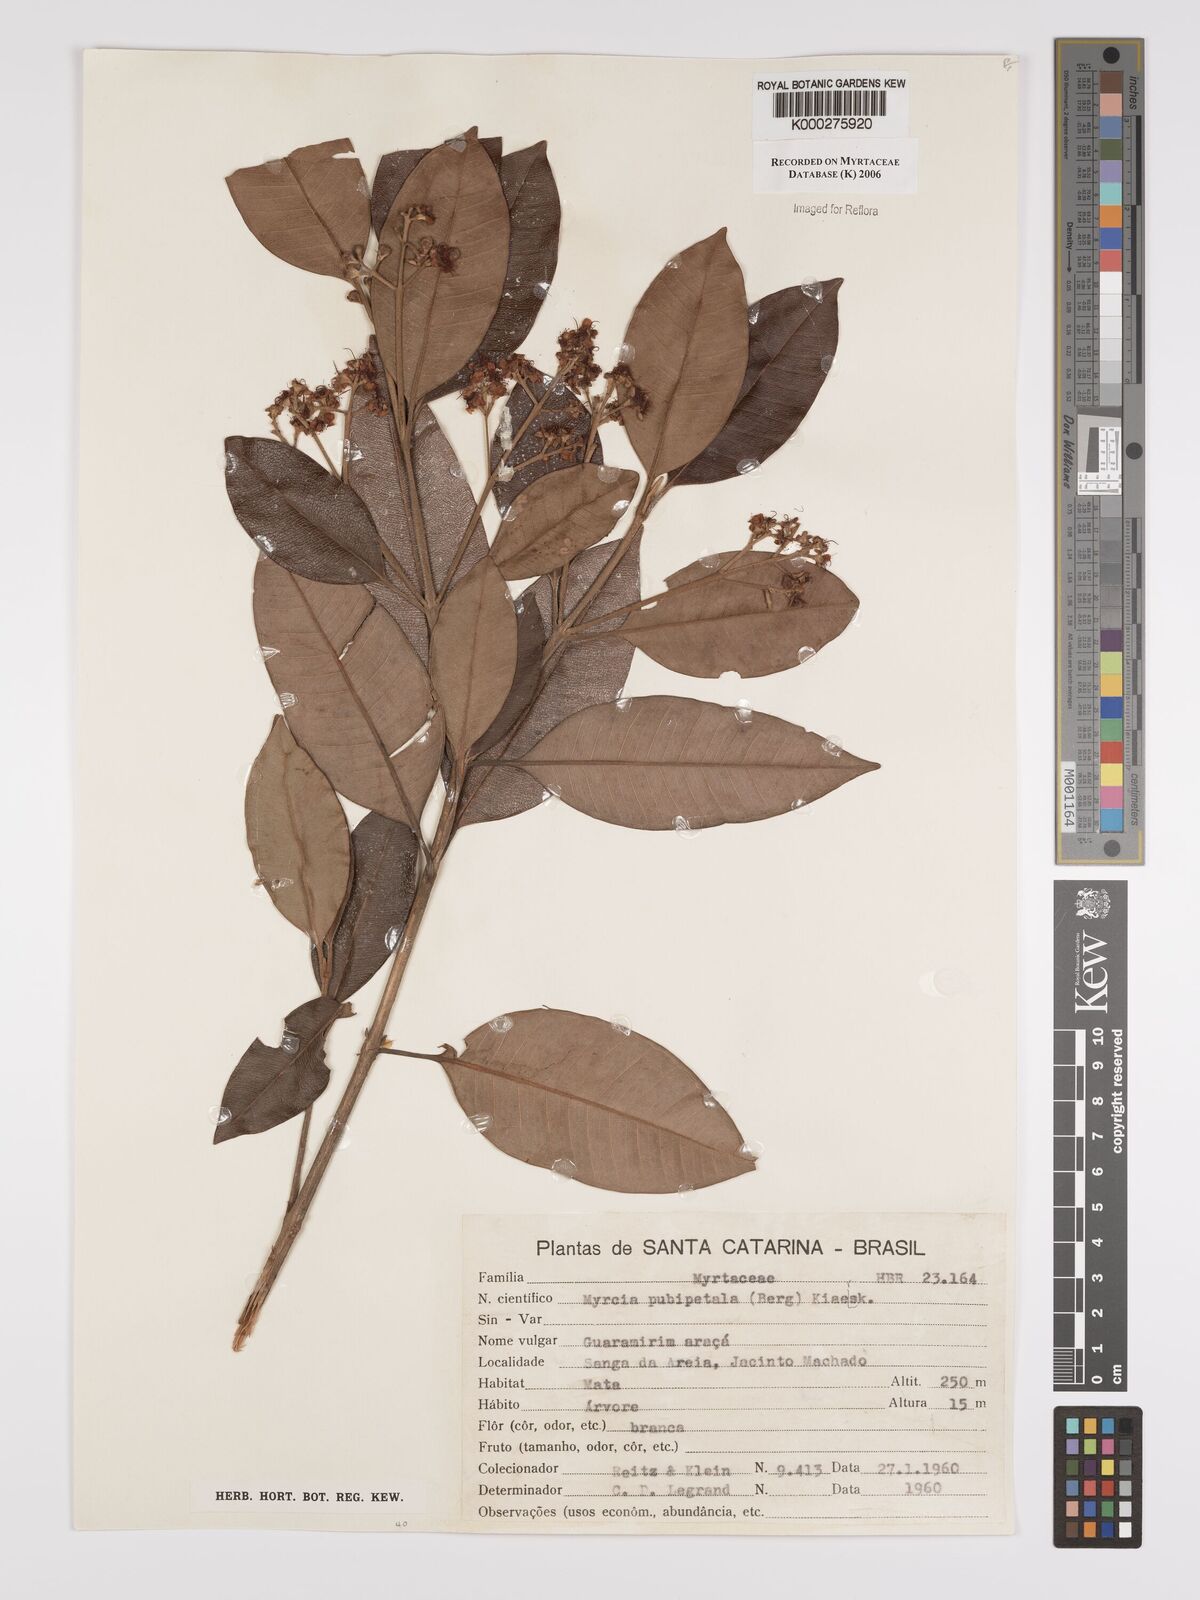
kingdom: Plantae
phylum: Tracheophyta
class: Magnoliopsida
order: Myrtales
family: Myrtaceae
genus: Myrcia
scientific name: Myrcia
